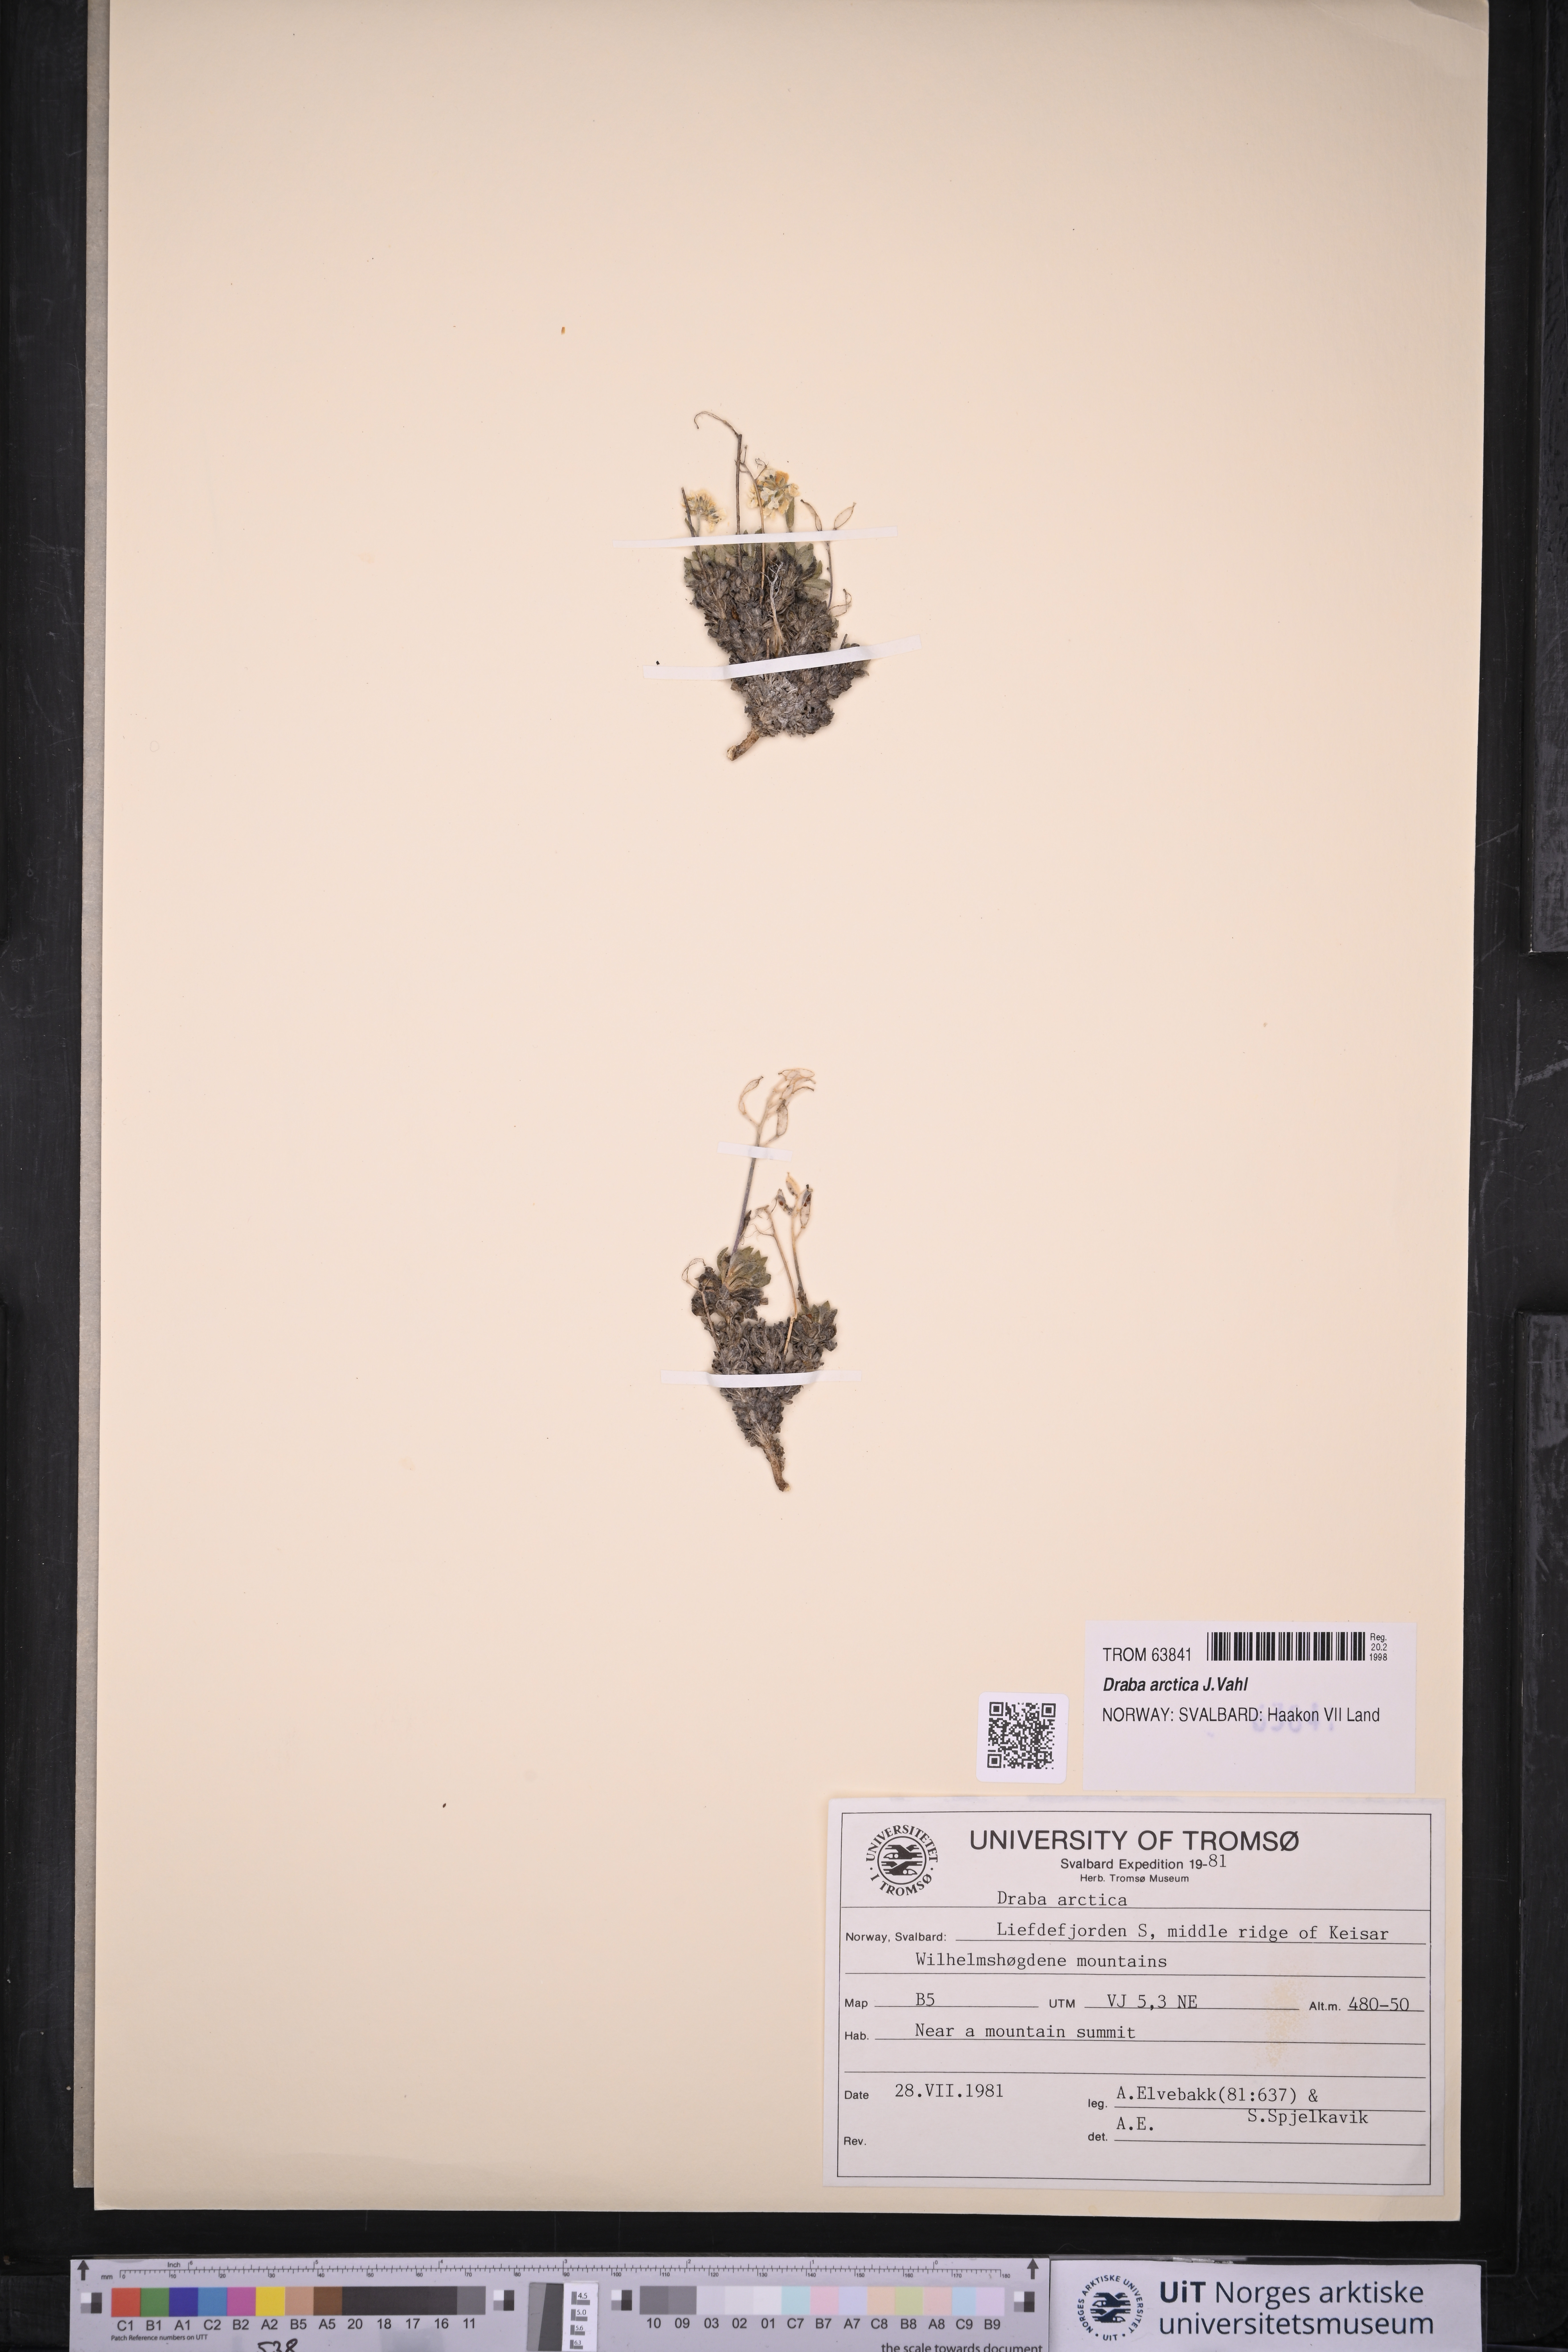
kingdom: Plantae
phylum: Tracheophyta
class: Magnoliopsida
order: Brassicales
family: Brassicaceae
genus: Draba
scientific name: Draba arctica
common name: Arctic draba
